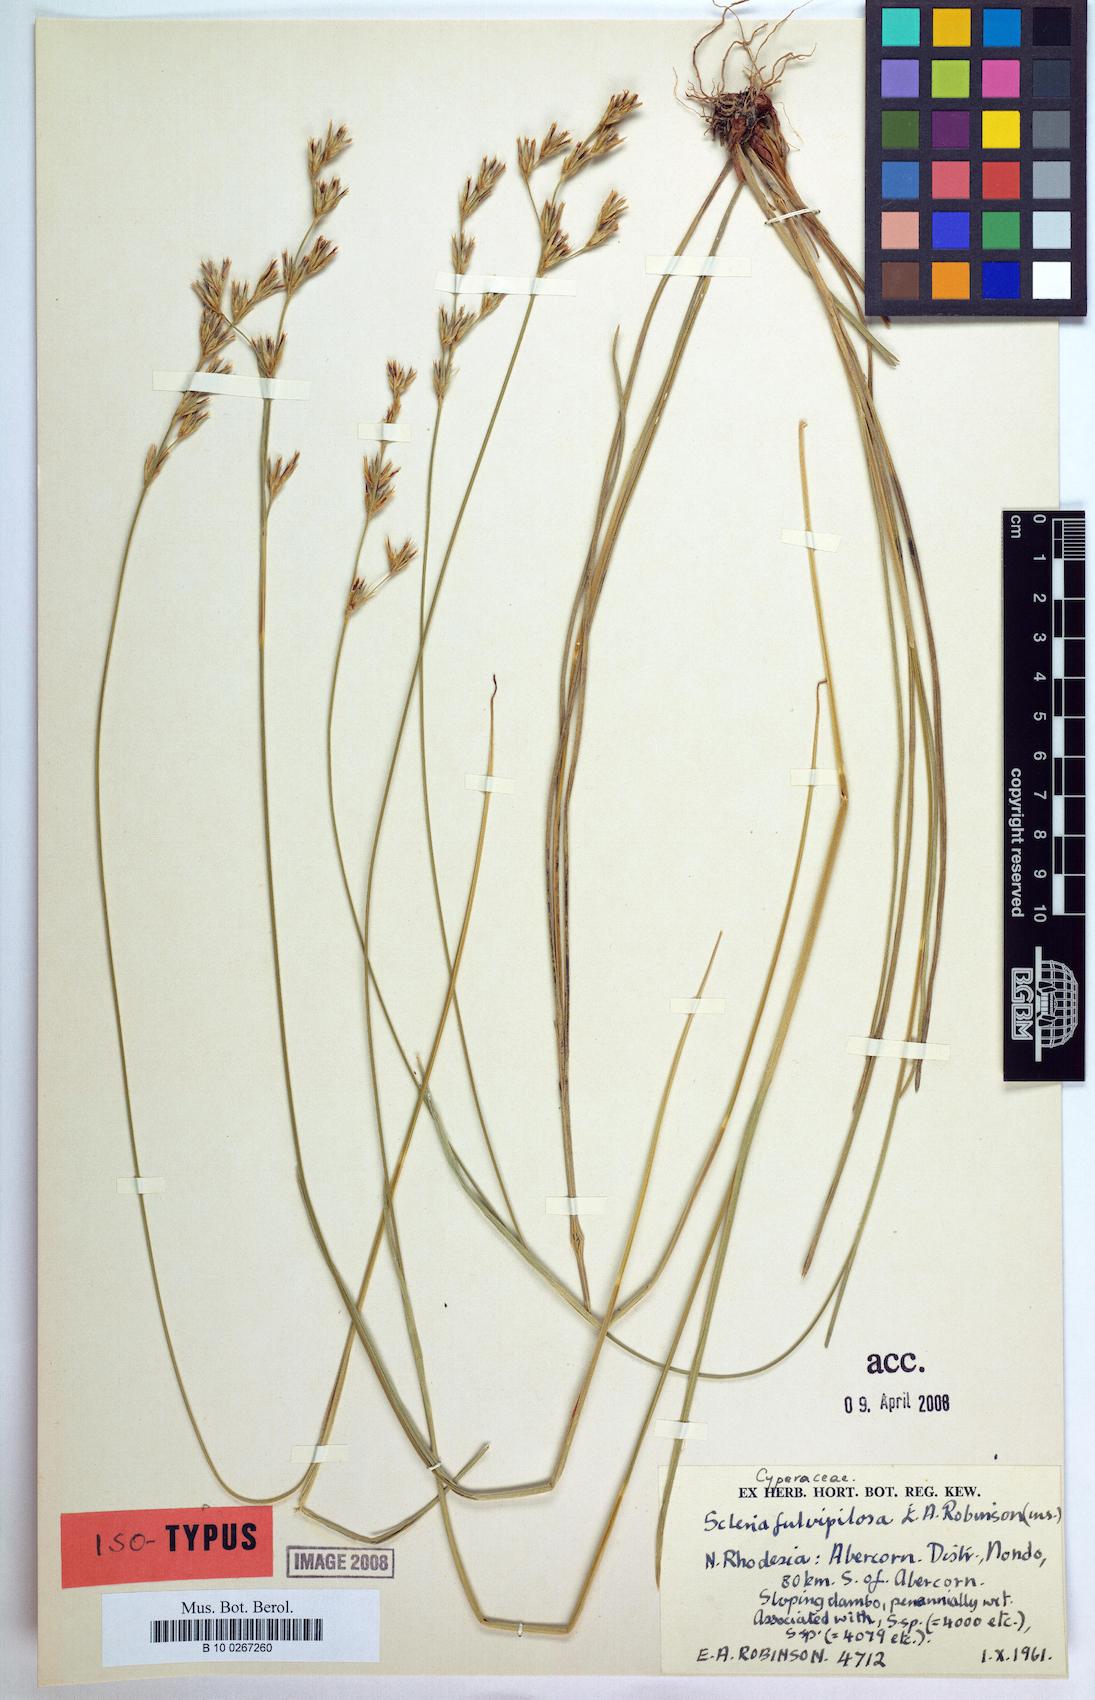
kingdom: Plantae
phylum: Tracheophyta
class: Liliopsida
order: Poales
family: Cyperaceae
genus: Scleria
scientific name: Scleria fulvipilosa
